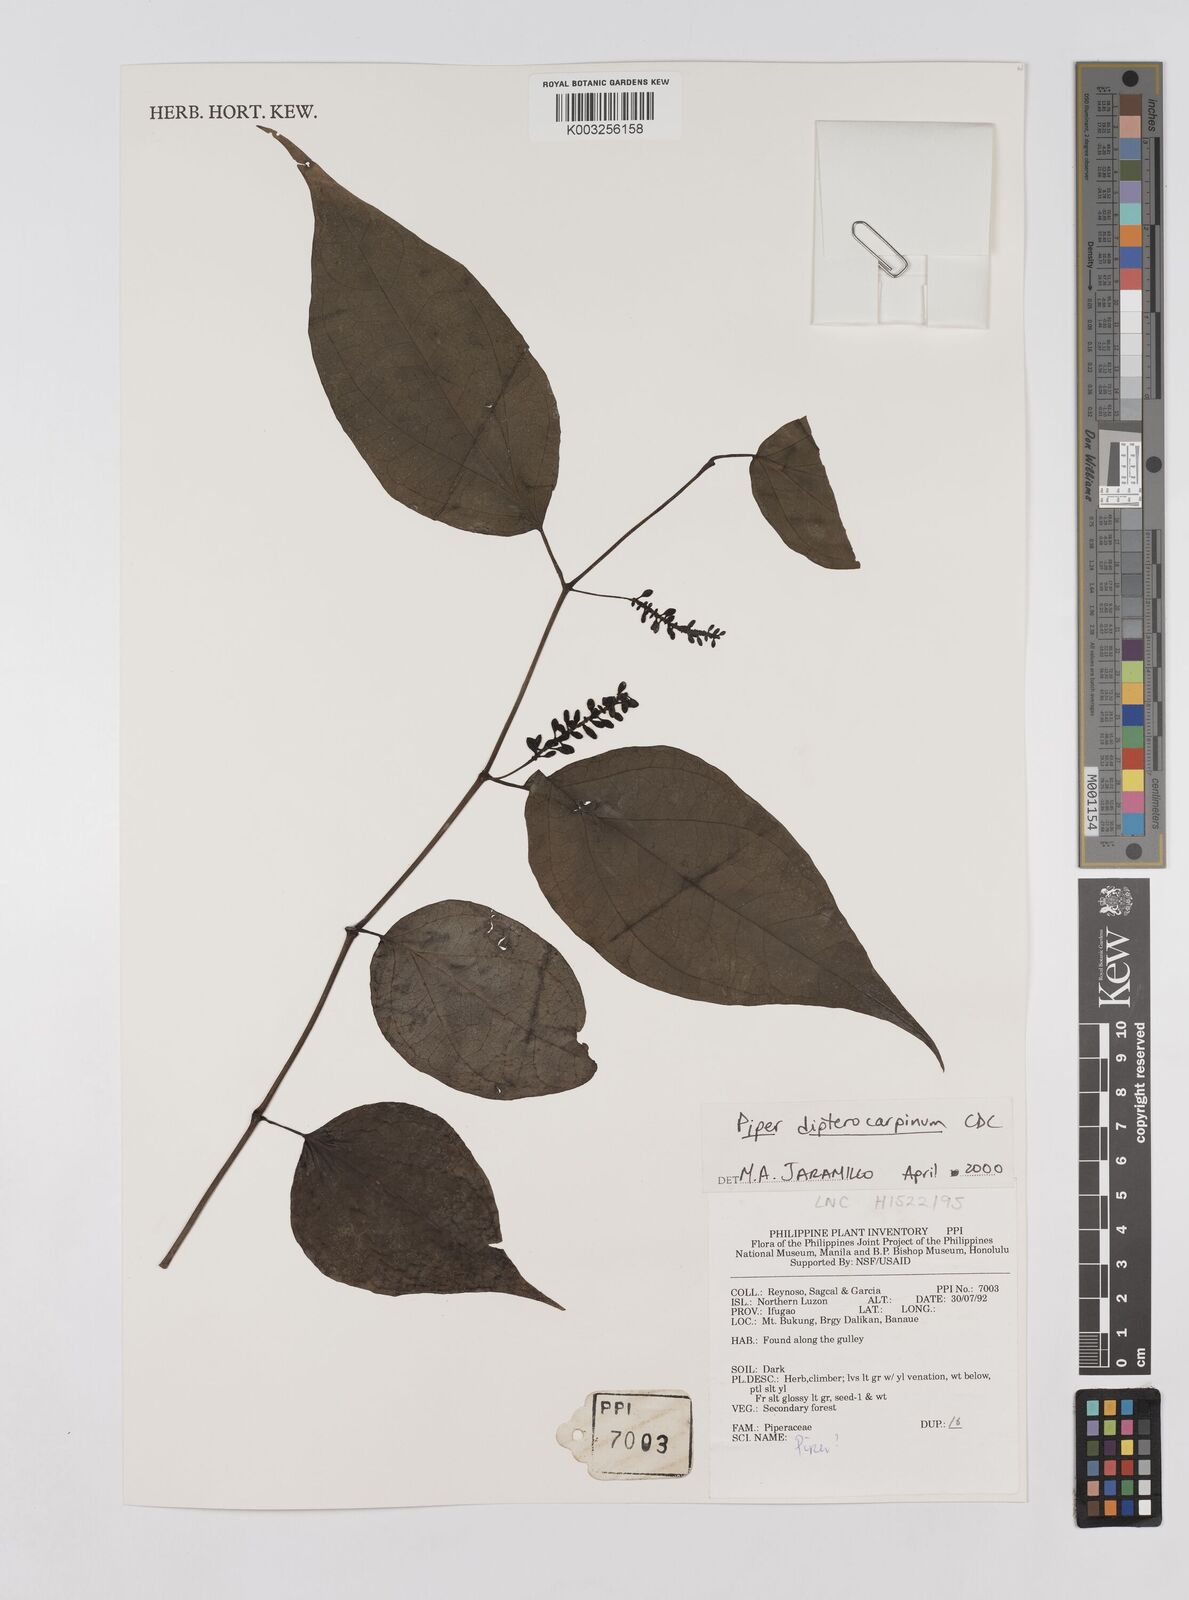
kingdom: Plantae
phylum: Tracheophyta
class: Magnoliopsida
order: Piperales
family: Piperaceae
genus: Piper
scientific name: Piper
